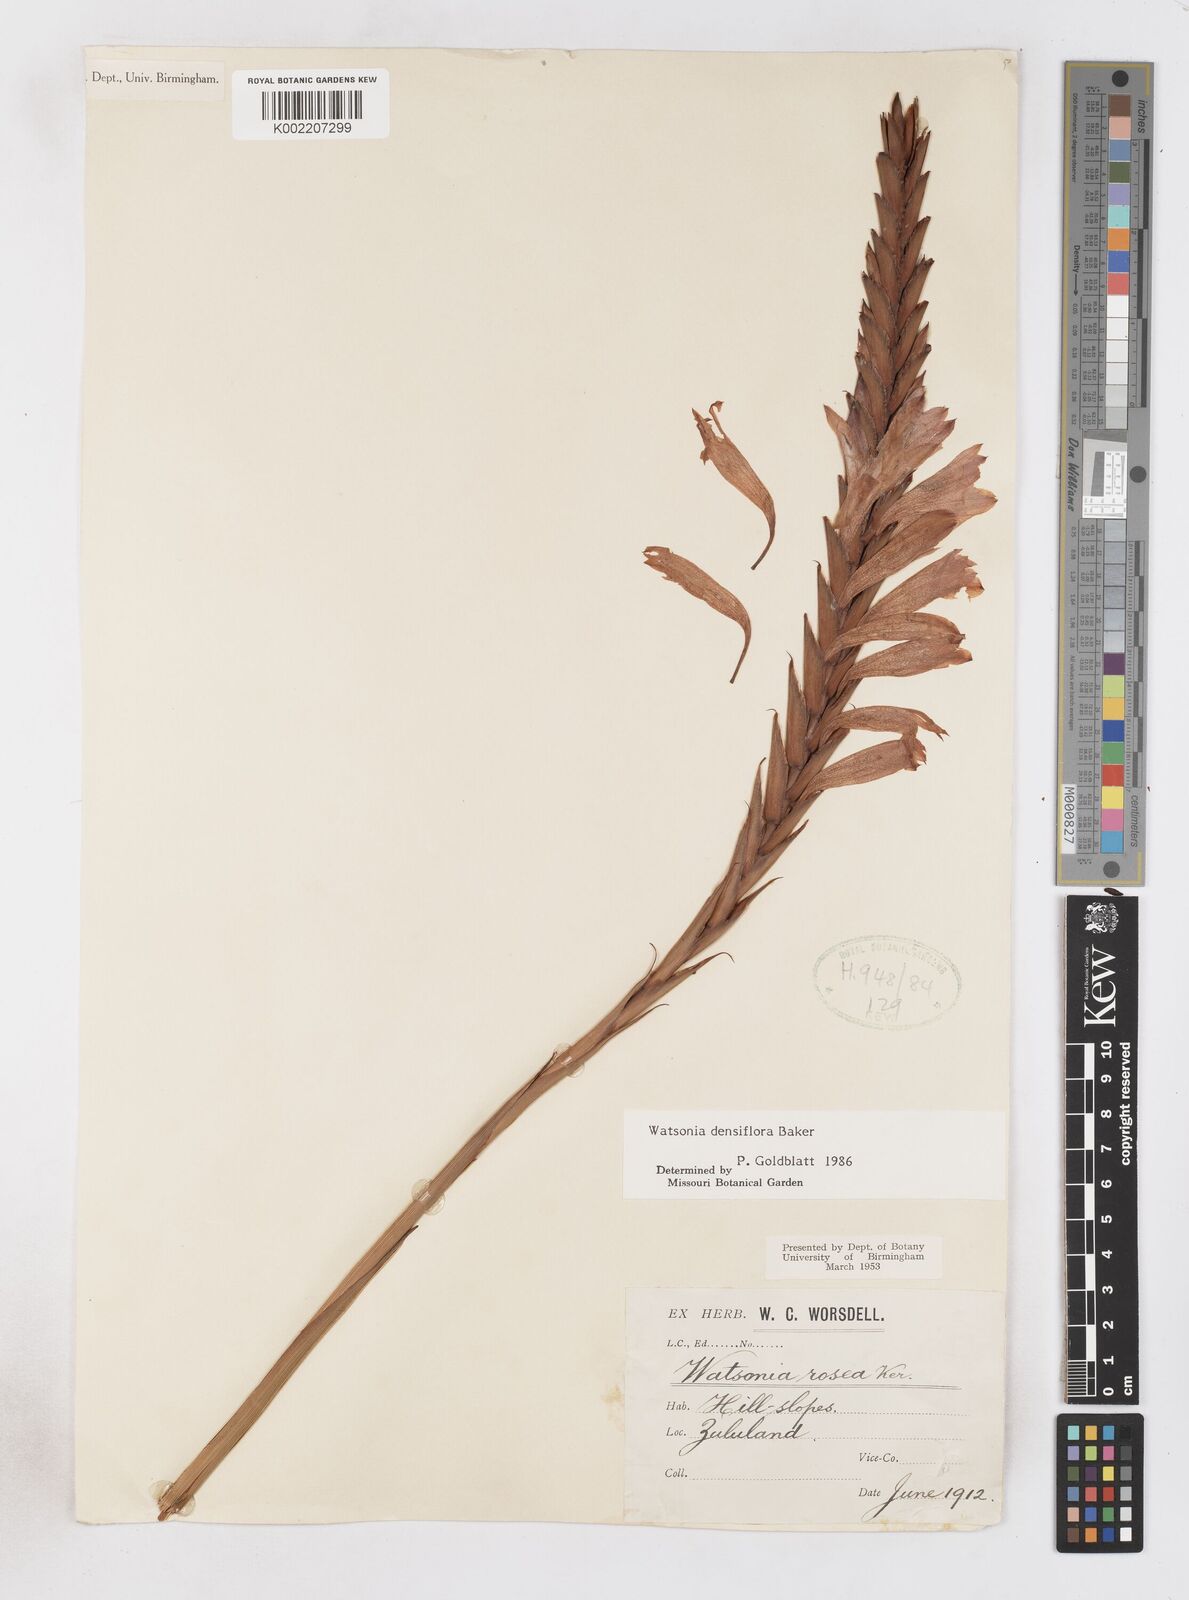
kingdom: Plantae
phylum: Tracheophyta
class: Liliopsida
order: Asparagales
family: Iridaceae
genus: Watsonia
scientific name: Watsonia densiflora
